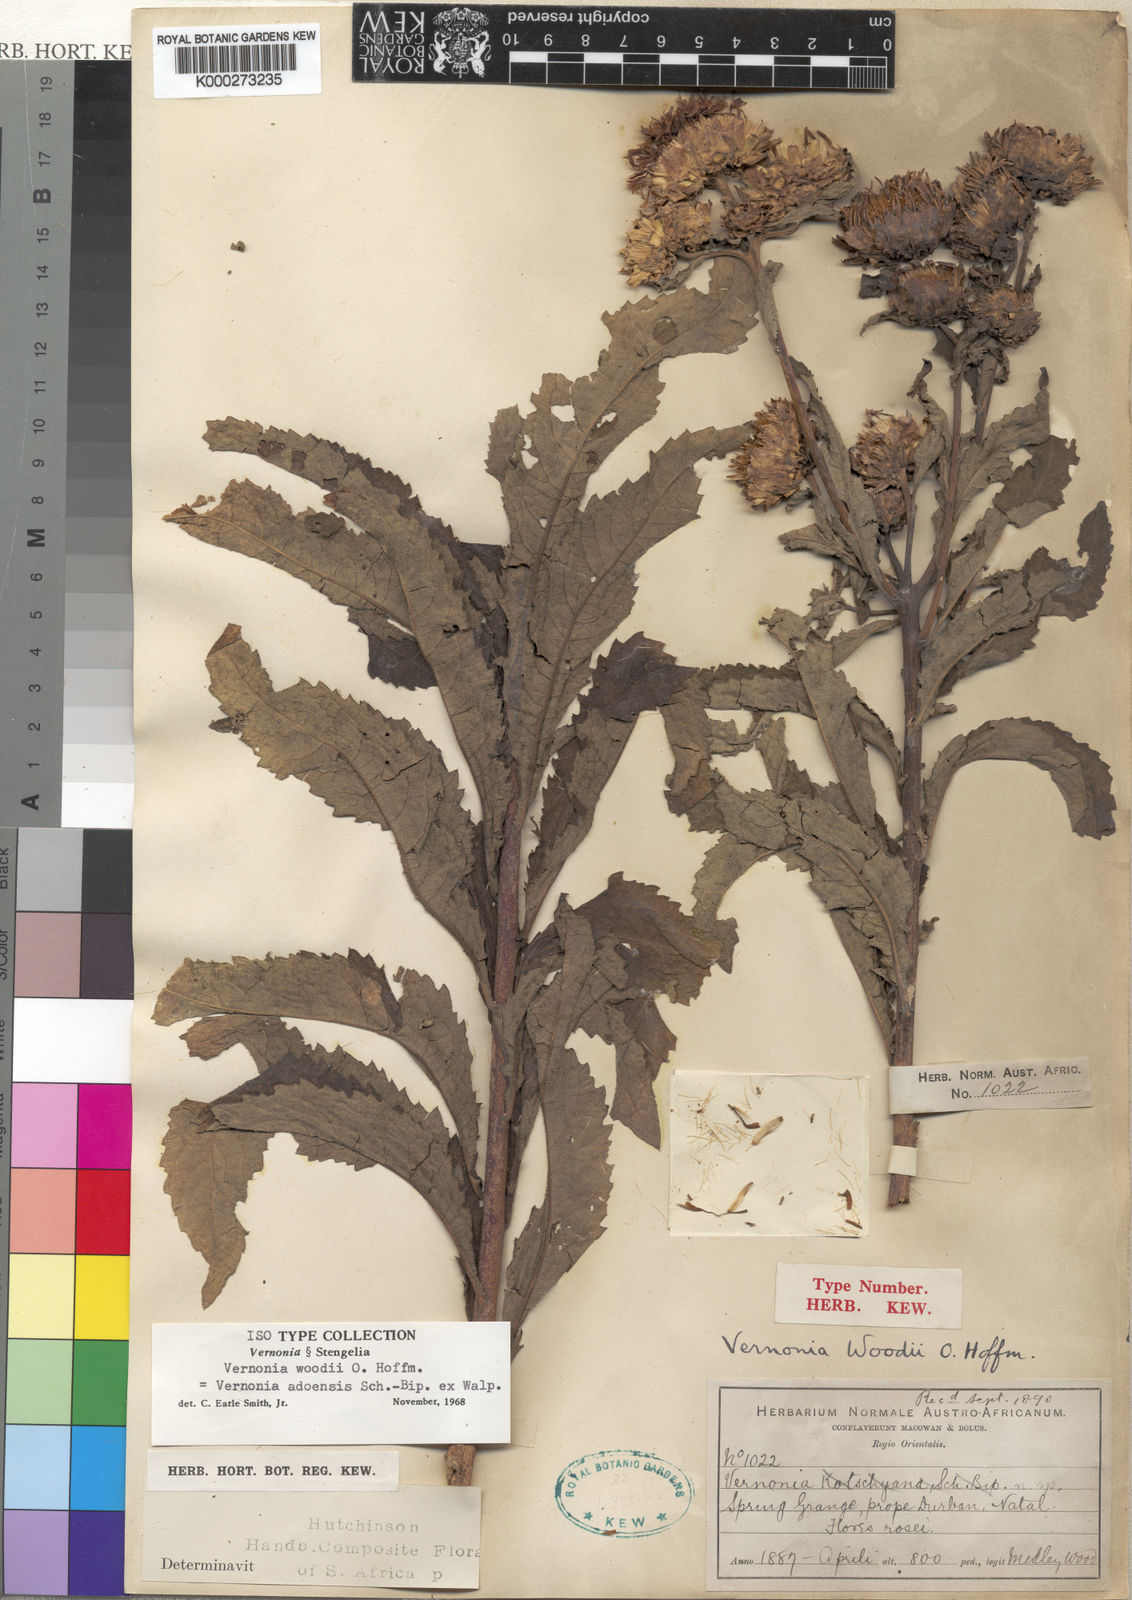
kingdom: Plantae
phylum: Tracheophyta
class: Magnoliopsida
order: Asterales
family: Asteraceae
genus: Baccharoides
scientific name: Baccharoides adoensis
